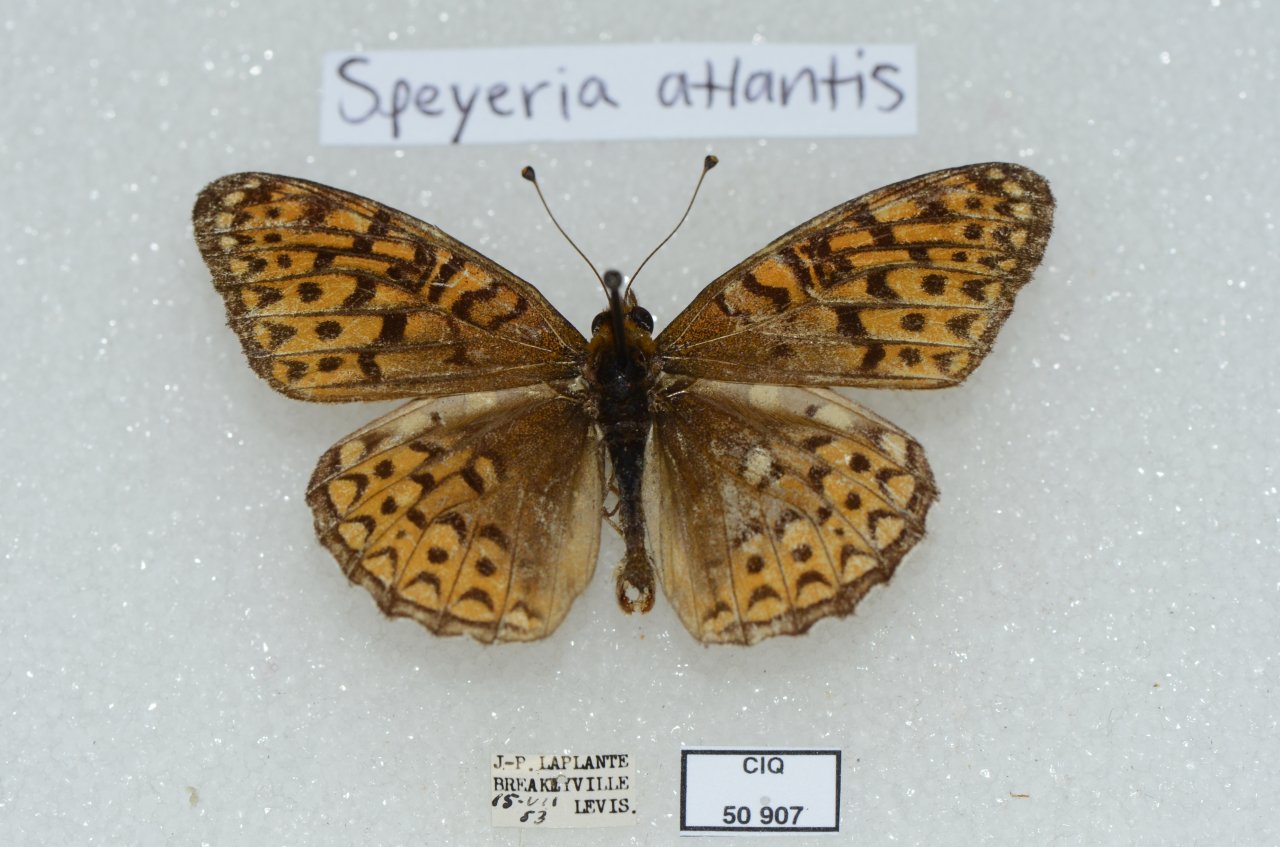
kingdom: Animalia
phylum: Arthropoda
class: Insecta
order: Lepidoptera
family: Nymphalidae
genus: Speyeria
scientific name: Speyeria atlantis
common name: Atlantis Fritillary
